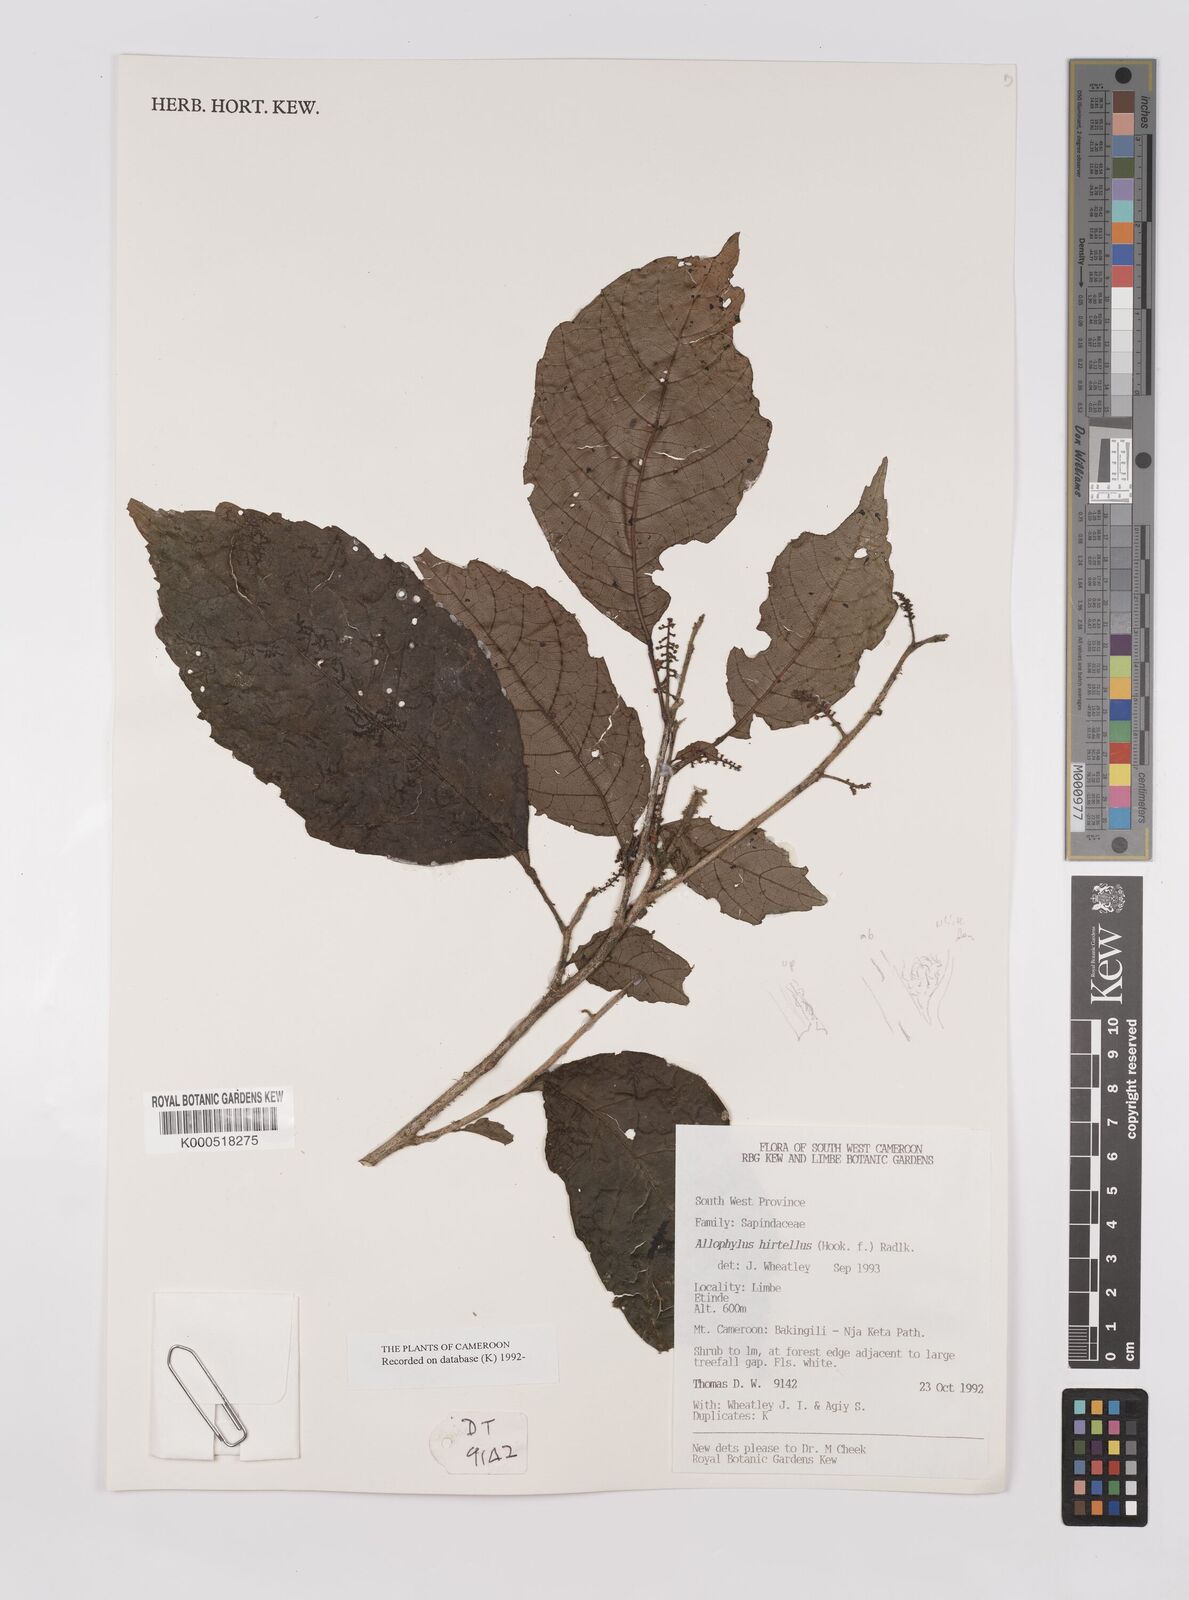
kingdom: Plantae
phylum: Tracheophyta
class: Magnoliopsida
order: Sapindales
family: Sapindaceae
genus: Allophylus
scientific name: Allophylus hirtellus
